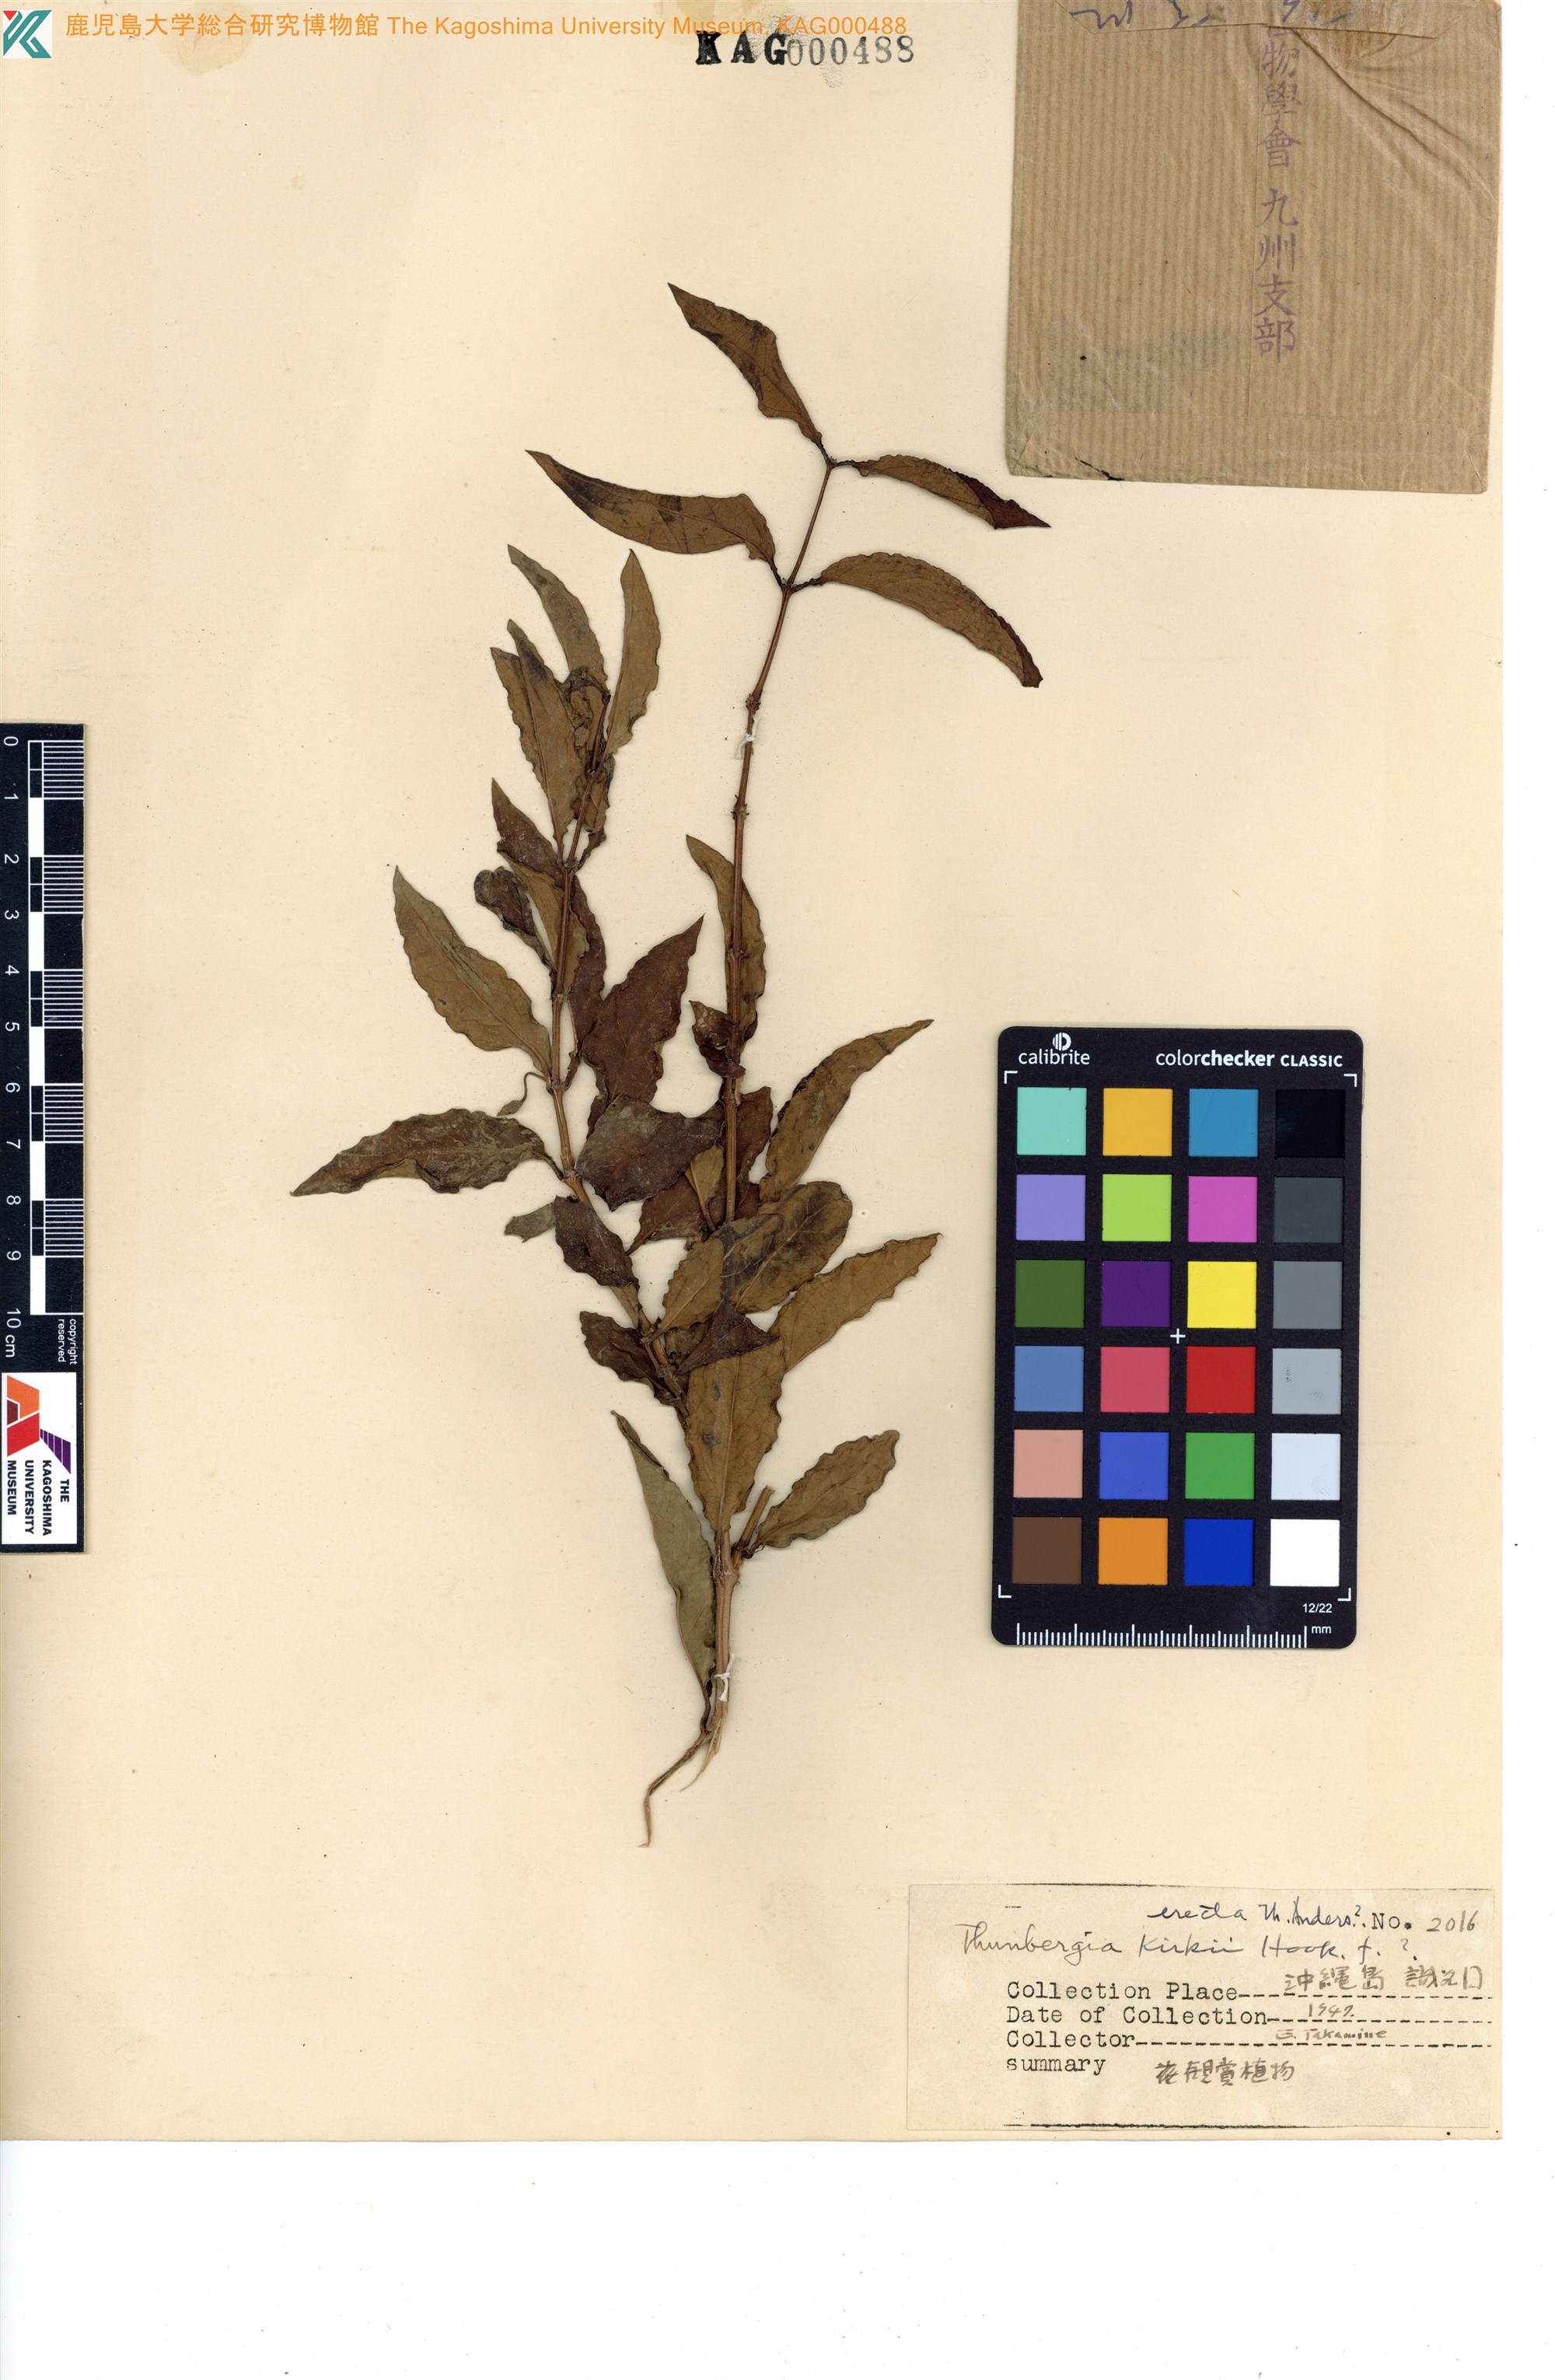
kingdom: Plantae
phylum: Tracheophyta
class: Magnoliopsida
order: Lamiales
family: Acanthaceae
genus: Thunbergia
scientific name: Thunbergia kirkii
